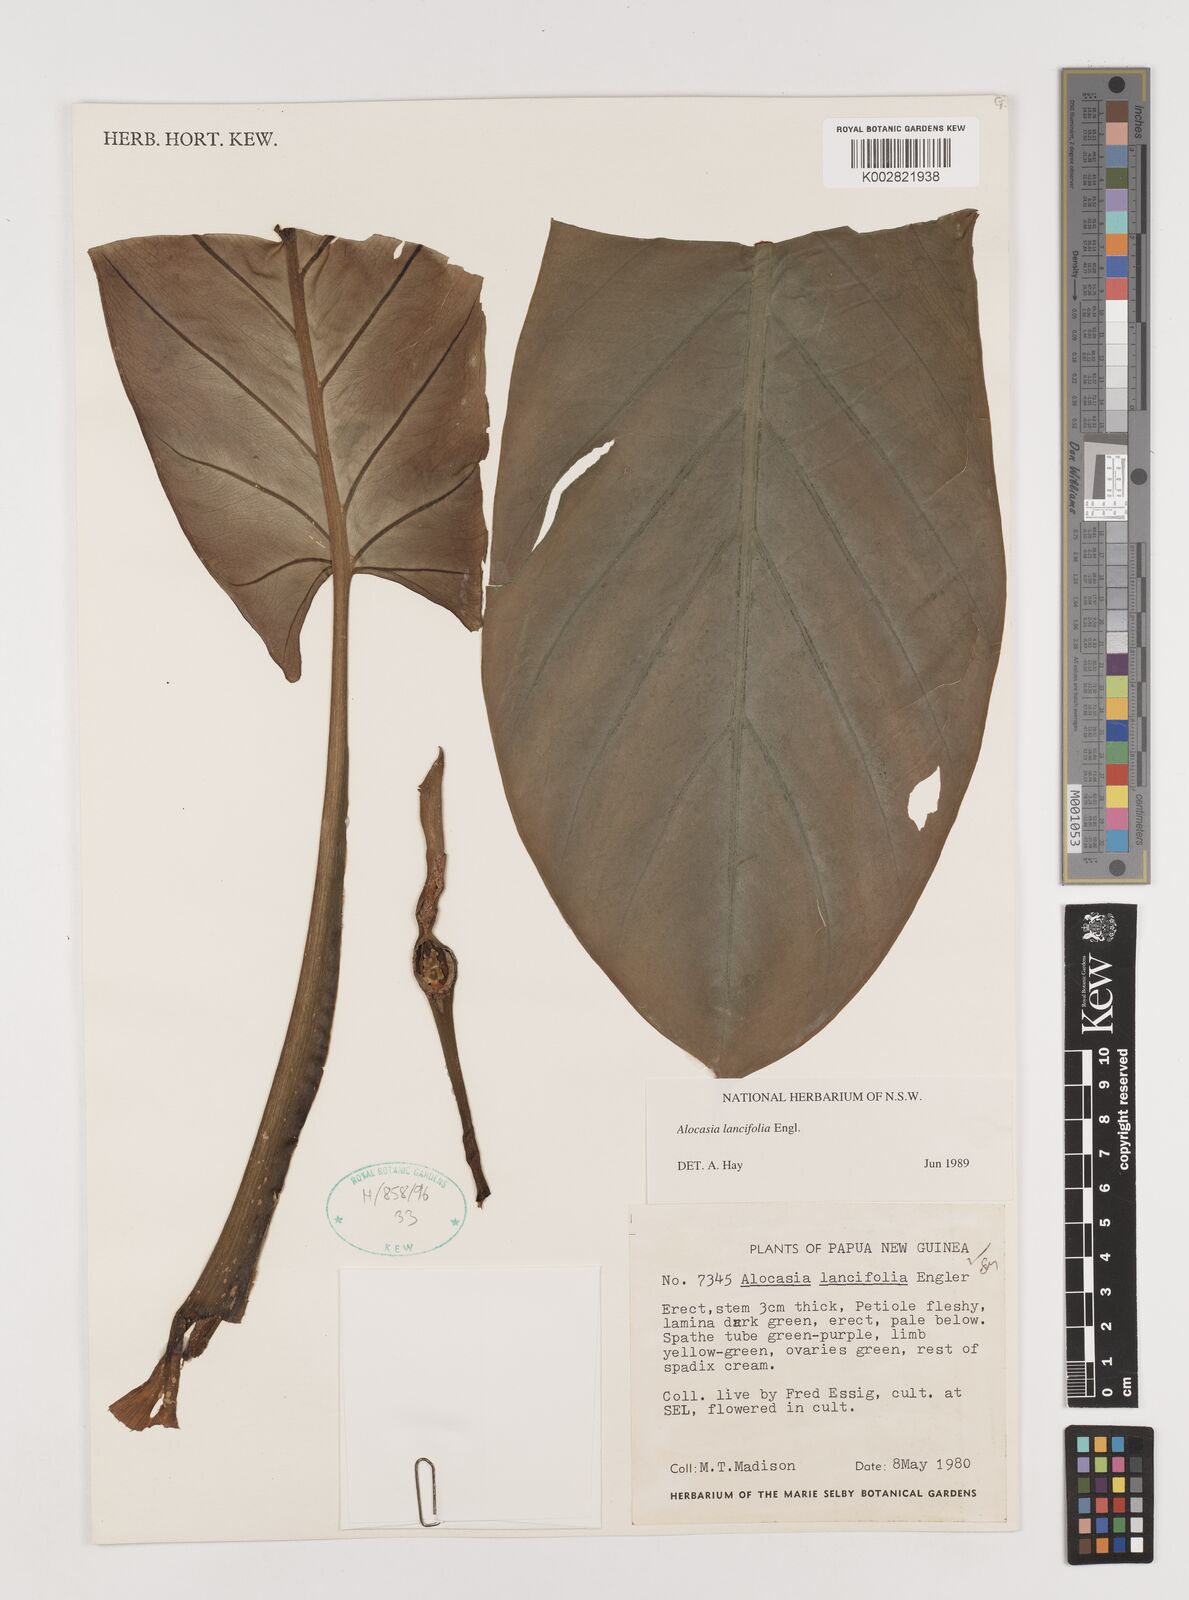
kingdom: Plantae
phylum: Tracheophyta
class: Liliopsida
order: Alismatales
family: Araceae
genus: Alocasia
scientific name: Alocasia lancifolia
